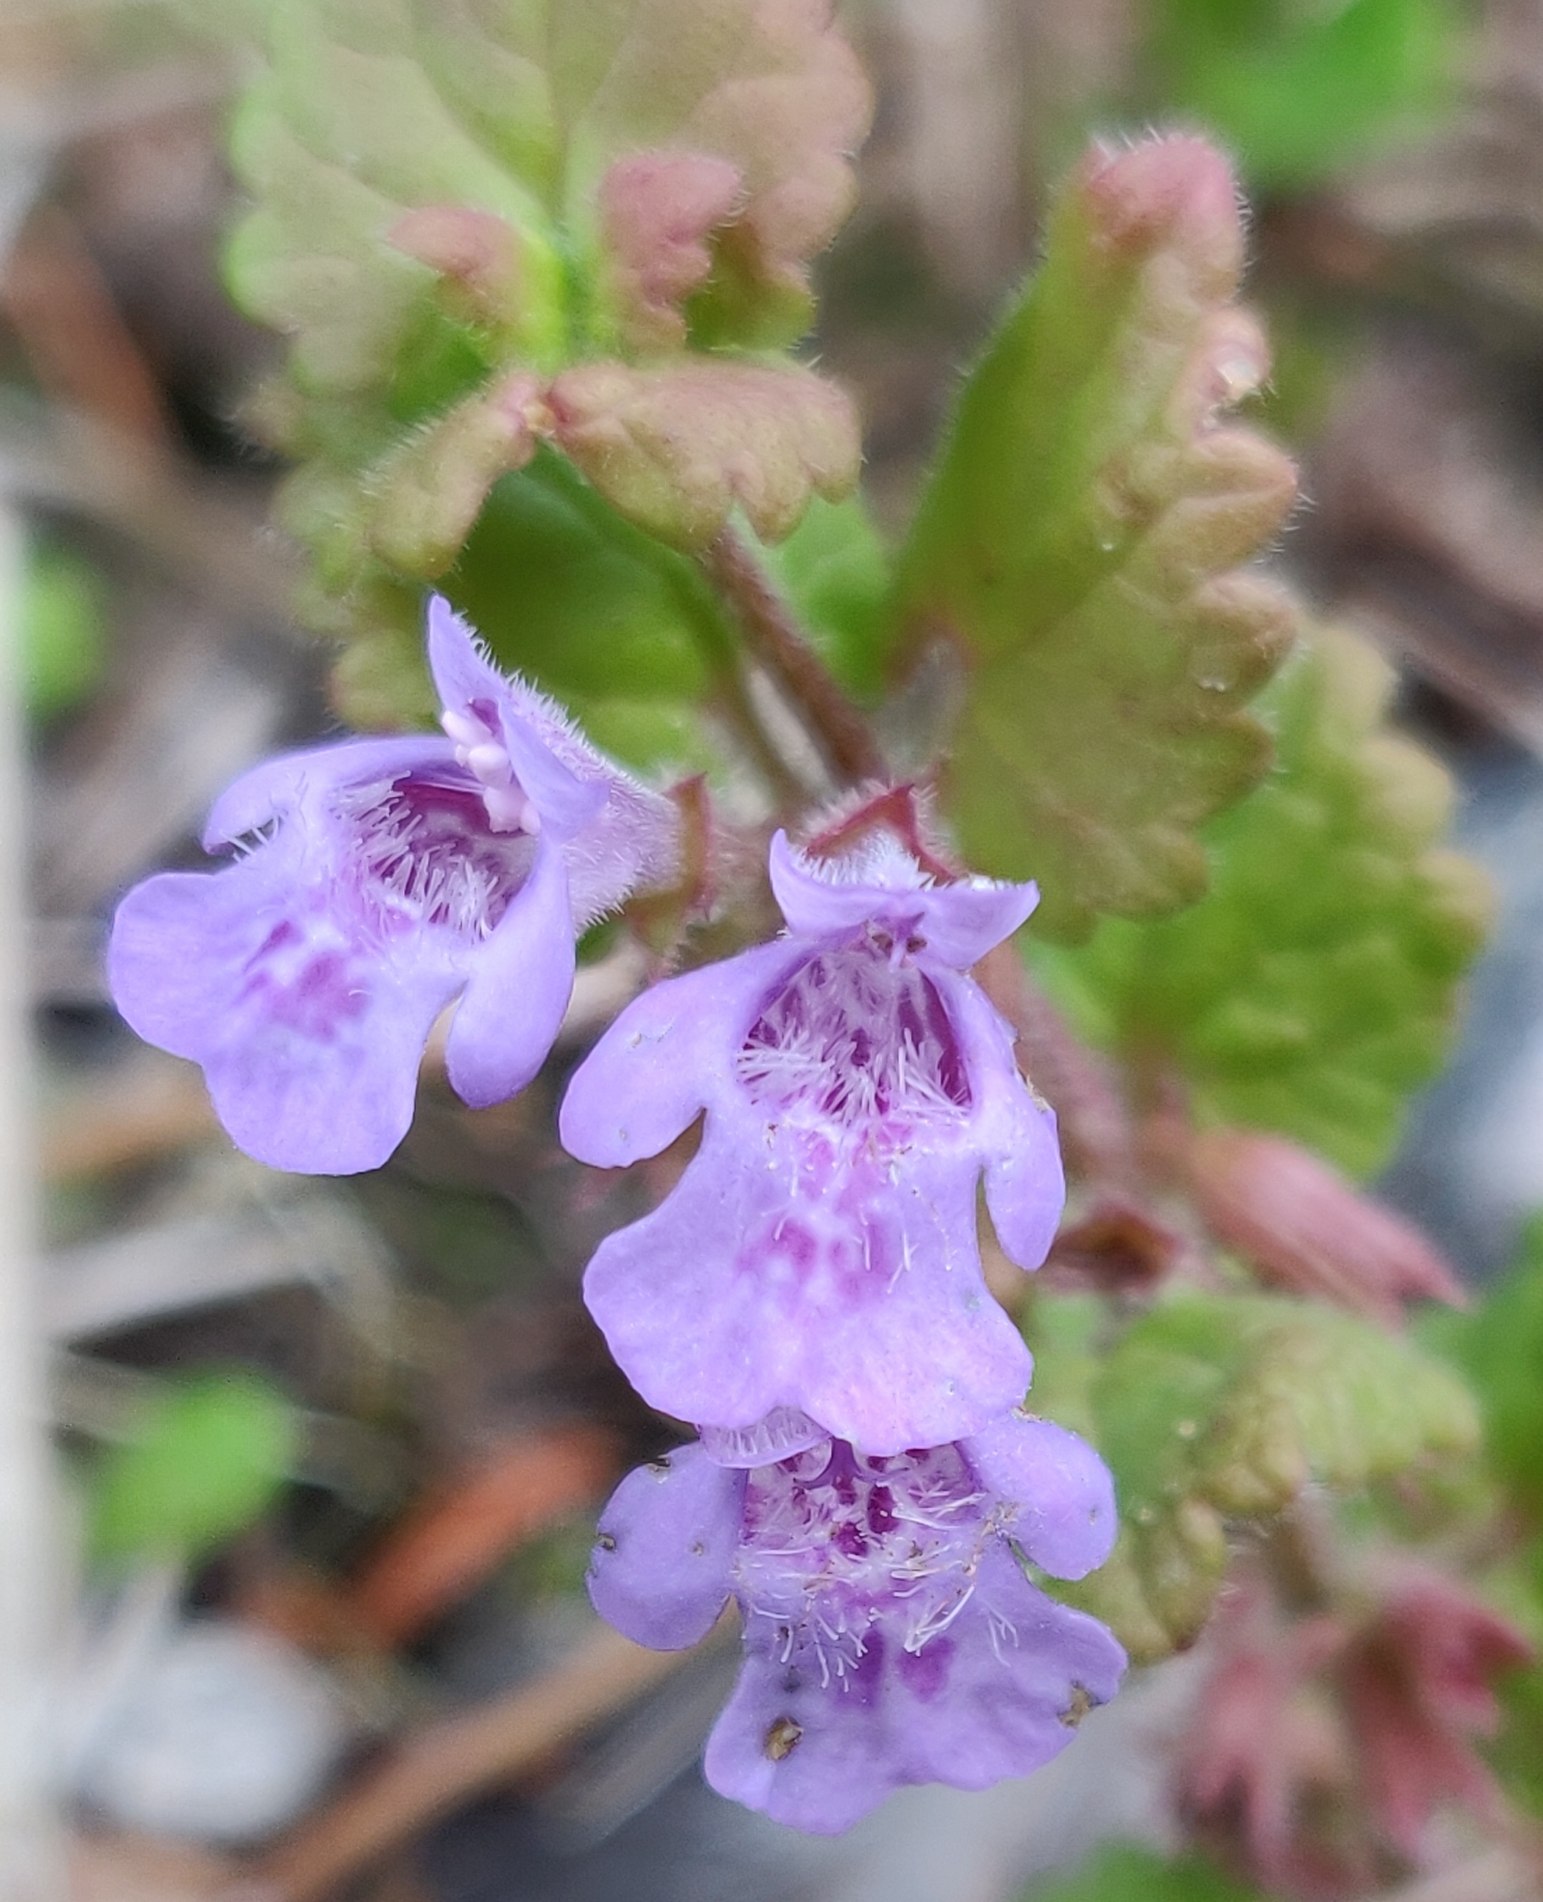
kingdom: Plantae
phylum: Tracheophyta
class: Magnoliopsida
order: Lamiales
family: Lamiaceae
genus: Glechoma
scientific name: Glechoma hederacea
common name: Korsknap
